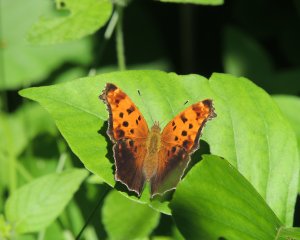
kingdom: Animalia
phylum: Arthropoda
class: Insecta
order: Lepidoptera
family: Nymphalidae
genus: Polygonia
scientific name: Polygonia comma
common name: Eastern Comma
